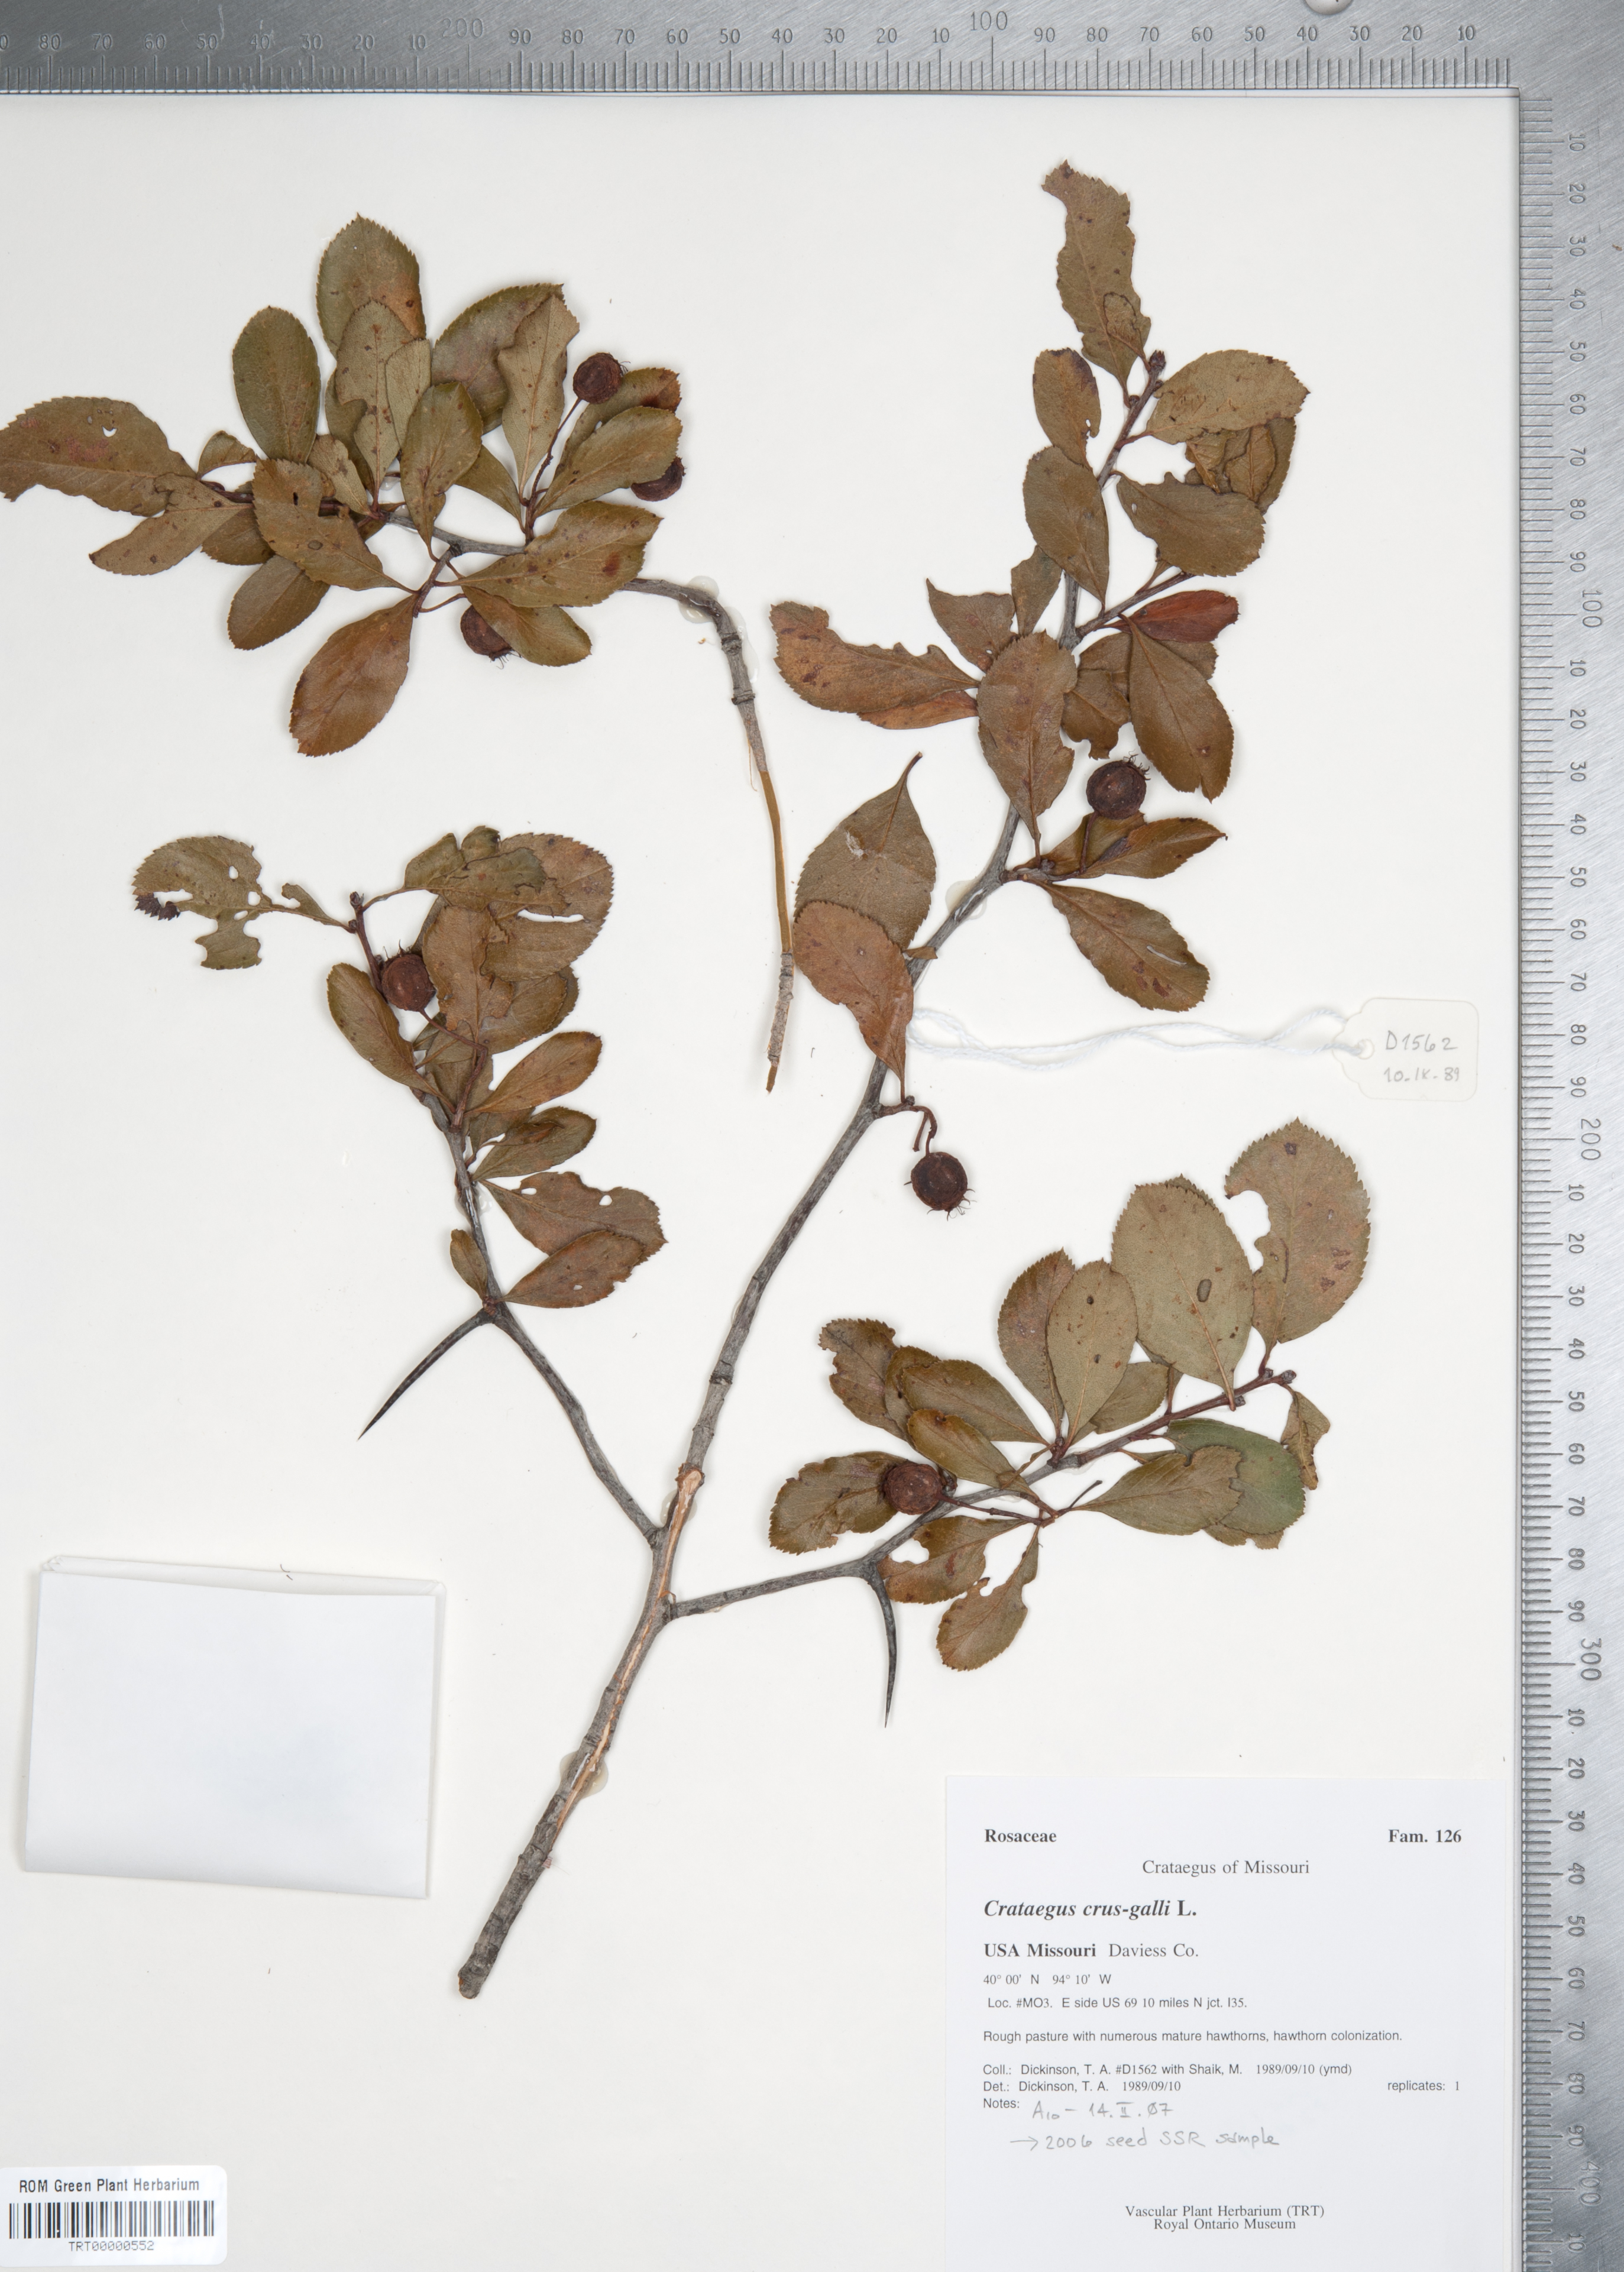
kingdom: Plantae
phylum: Tracheophyta
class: Magnoliopsida
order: Rosales
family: Rosaceae
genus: Crataegus
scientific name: Crataegus crus-galli
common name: Cockspurthorn
